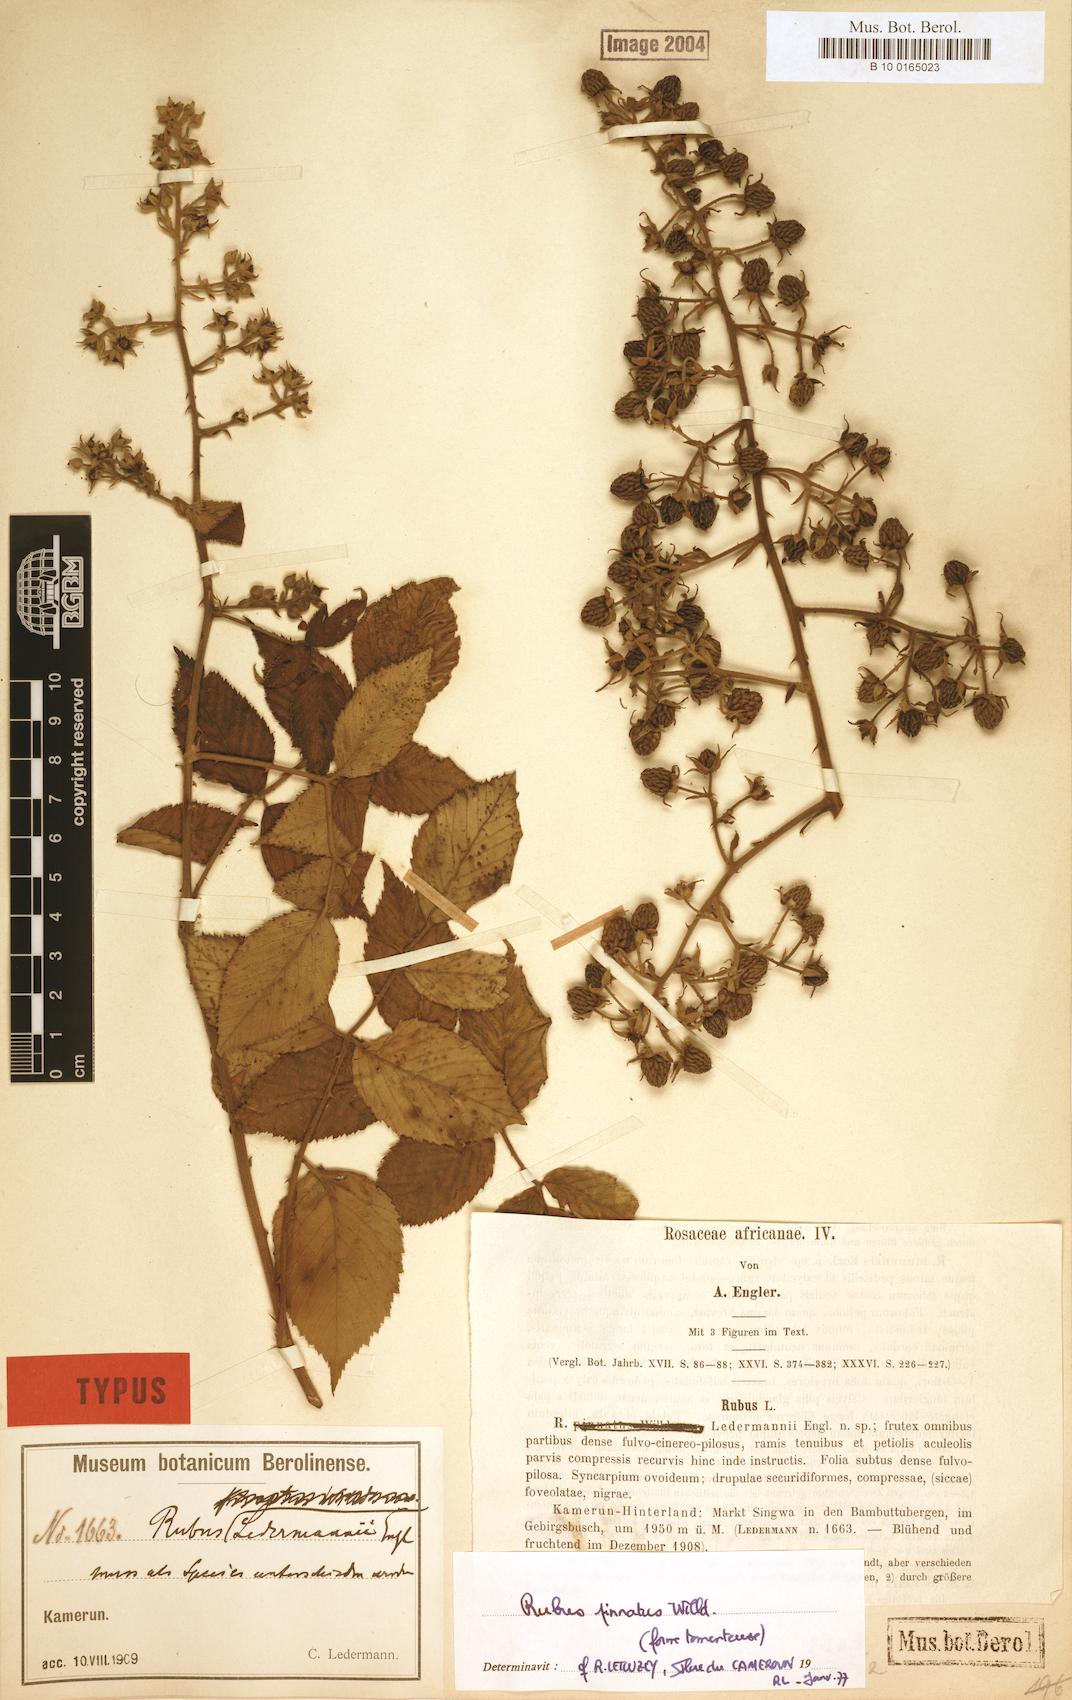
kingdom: Plantae
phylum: Tracheophyta
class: Magnoliopsida
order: Rosales
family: Rosaceae
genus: Rubus
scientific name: Rubus pinnatus
